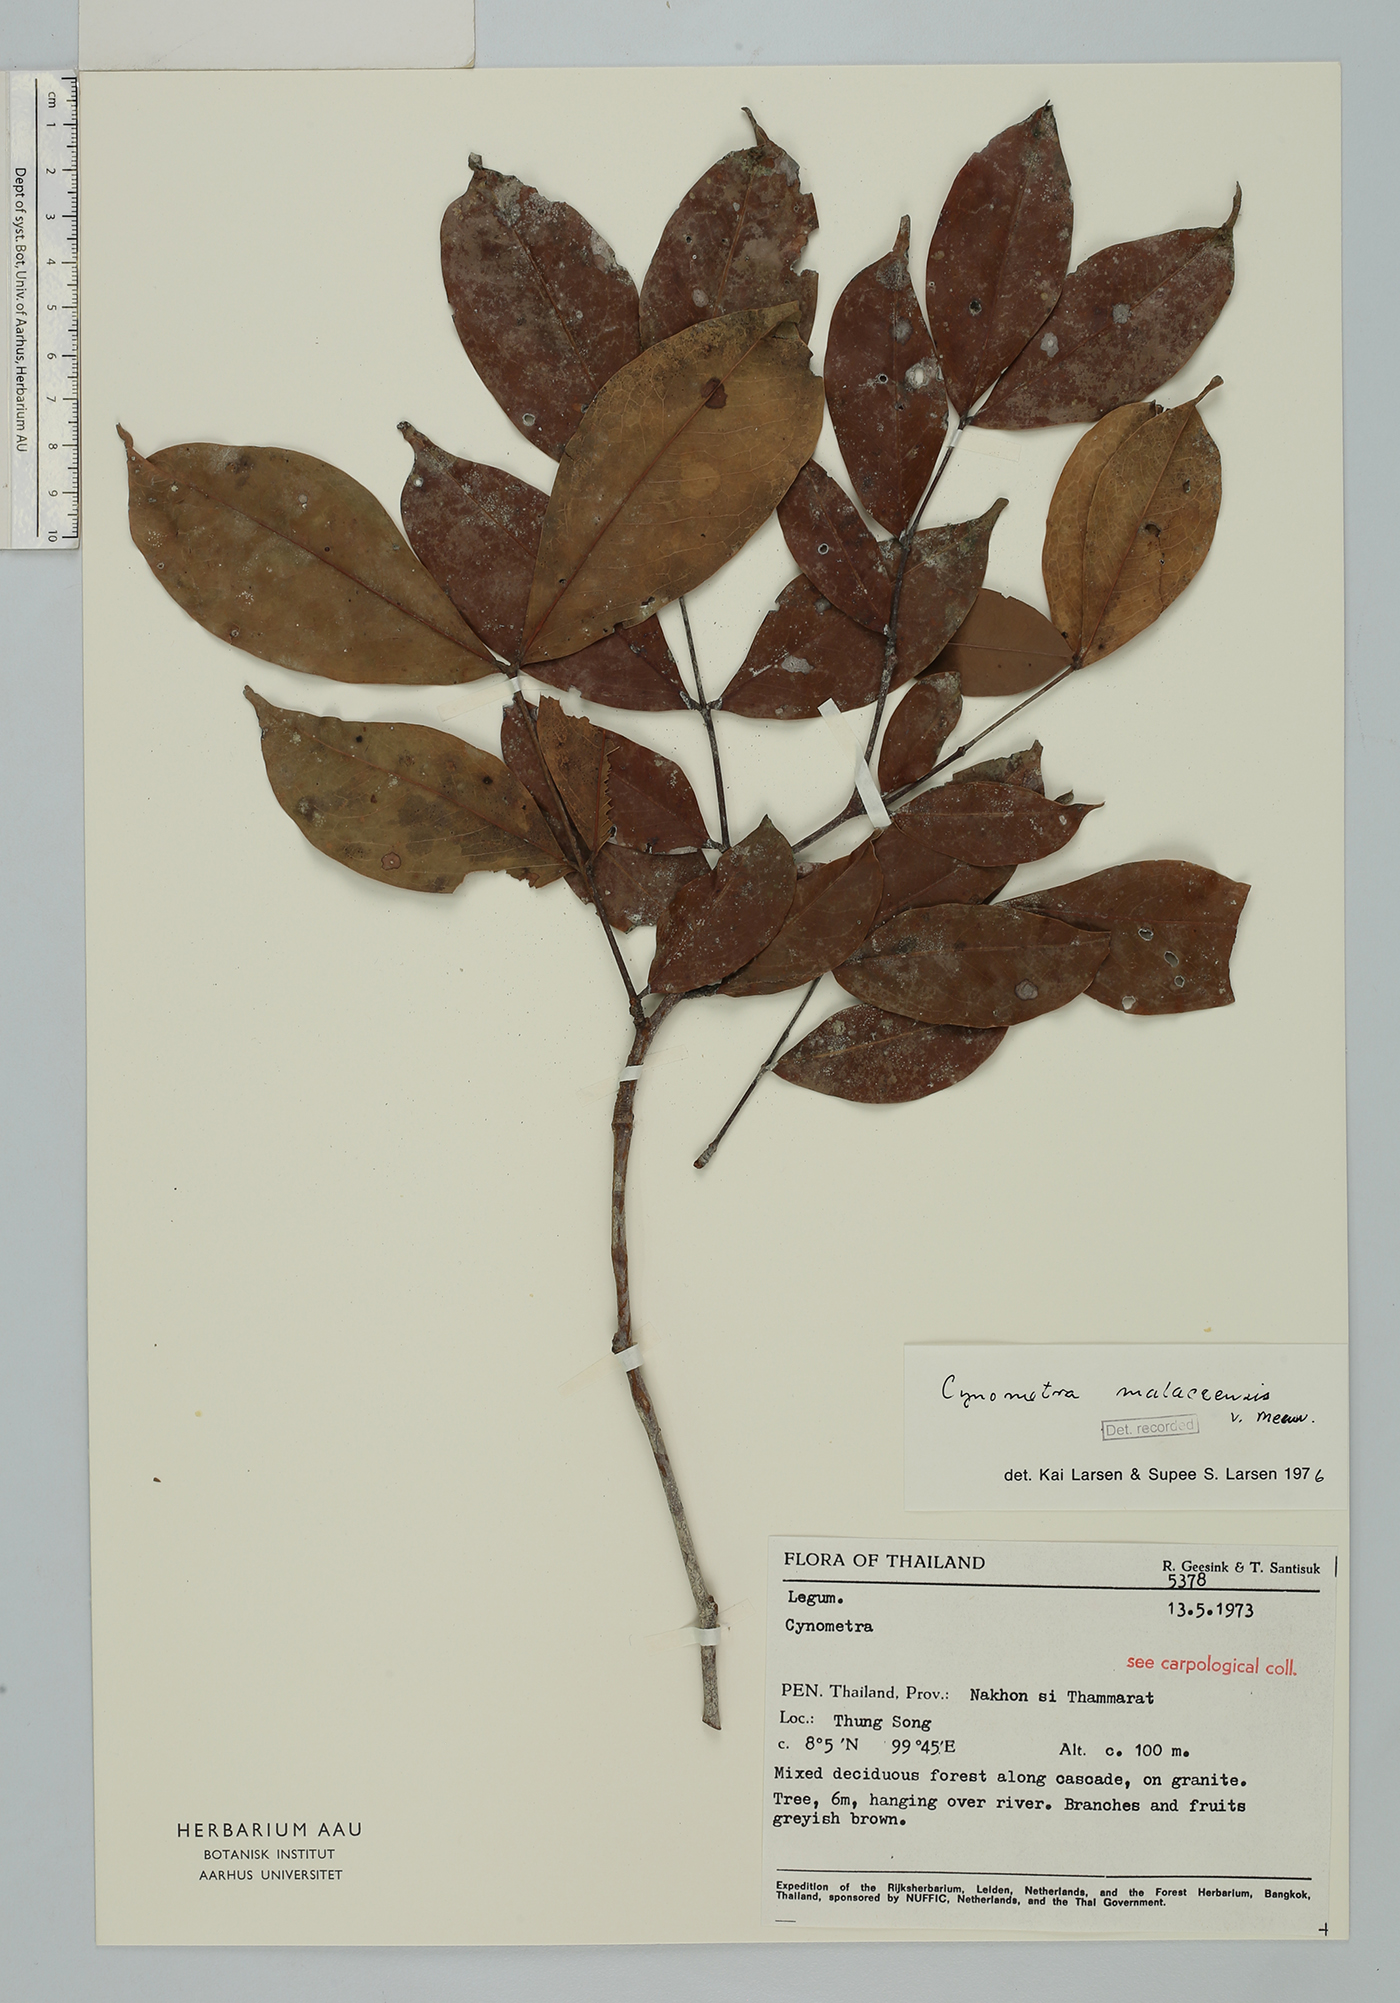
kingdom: Plantae
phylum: Tracheophyta
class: Magnoliopsida
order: Fabales
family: Fabaceae
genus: Cynometra
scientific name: Cynometra malaccensis
